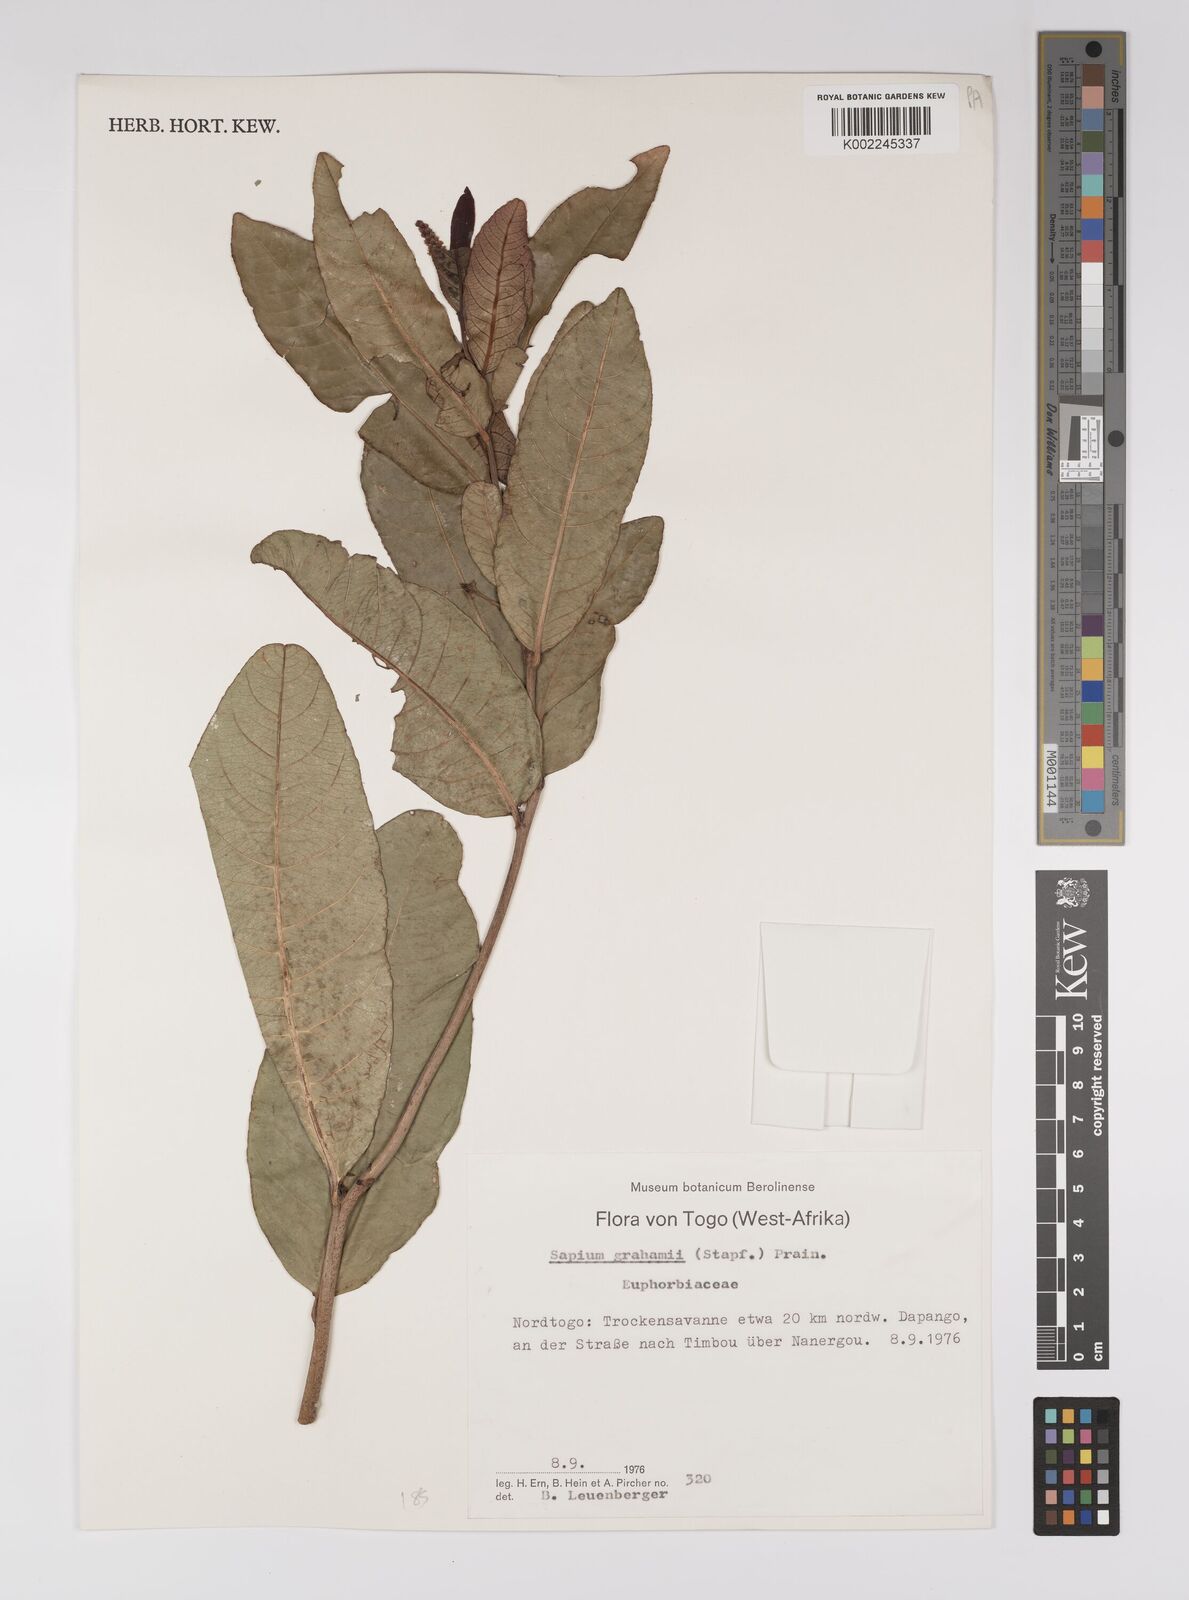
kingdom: Plantae
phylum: Tracheophyta
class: Magnoliopsida
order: Malpighiales
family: Euphorbiaceae
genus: Excoecaria
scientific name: Excoecaria grahamii
